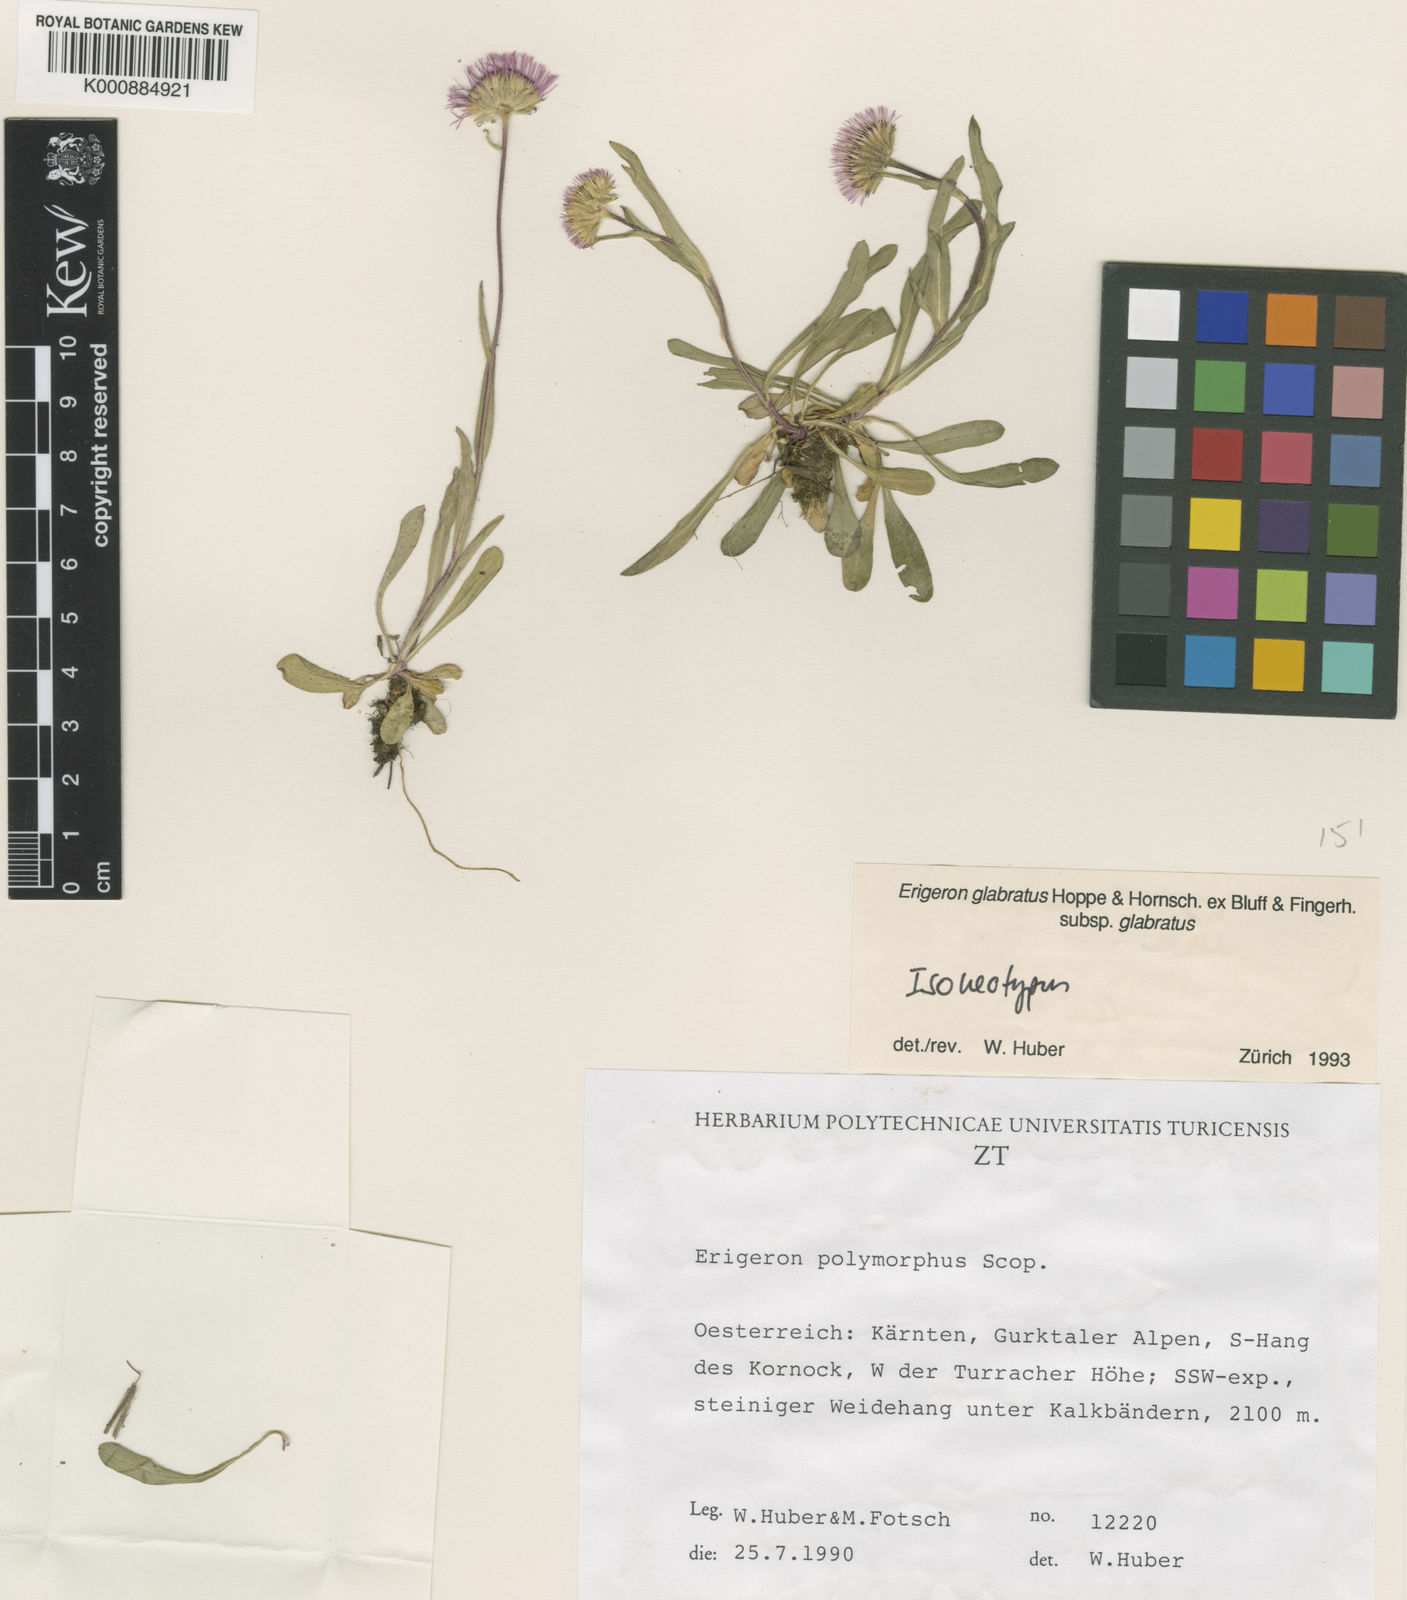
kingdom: Plantae
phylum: Tracheophyta
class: Magnoliopsida
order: Asterales
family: Asteraceae
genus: Erigeron
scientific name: Erigeron glabratus
